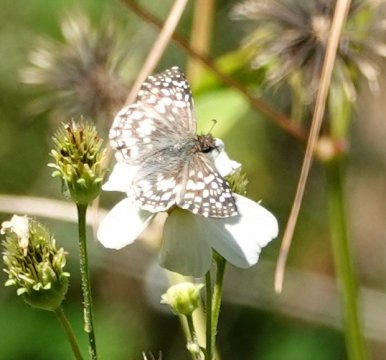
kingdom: Animalia
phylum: Arthropoda
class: Insecta
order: Lepidoptera
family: Hesperiidae
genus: Pyrgus
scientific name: Pyrgus oileus
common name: Tropical Checkered Skipper
